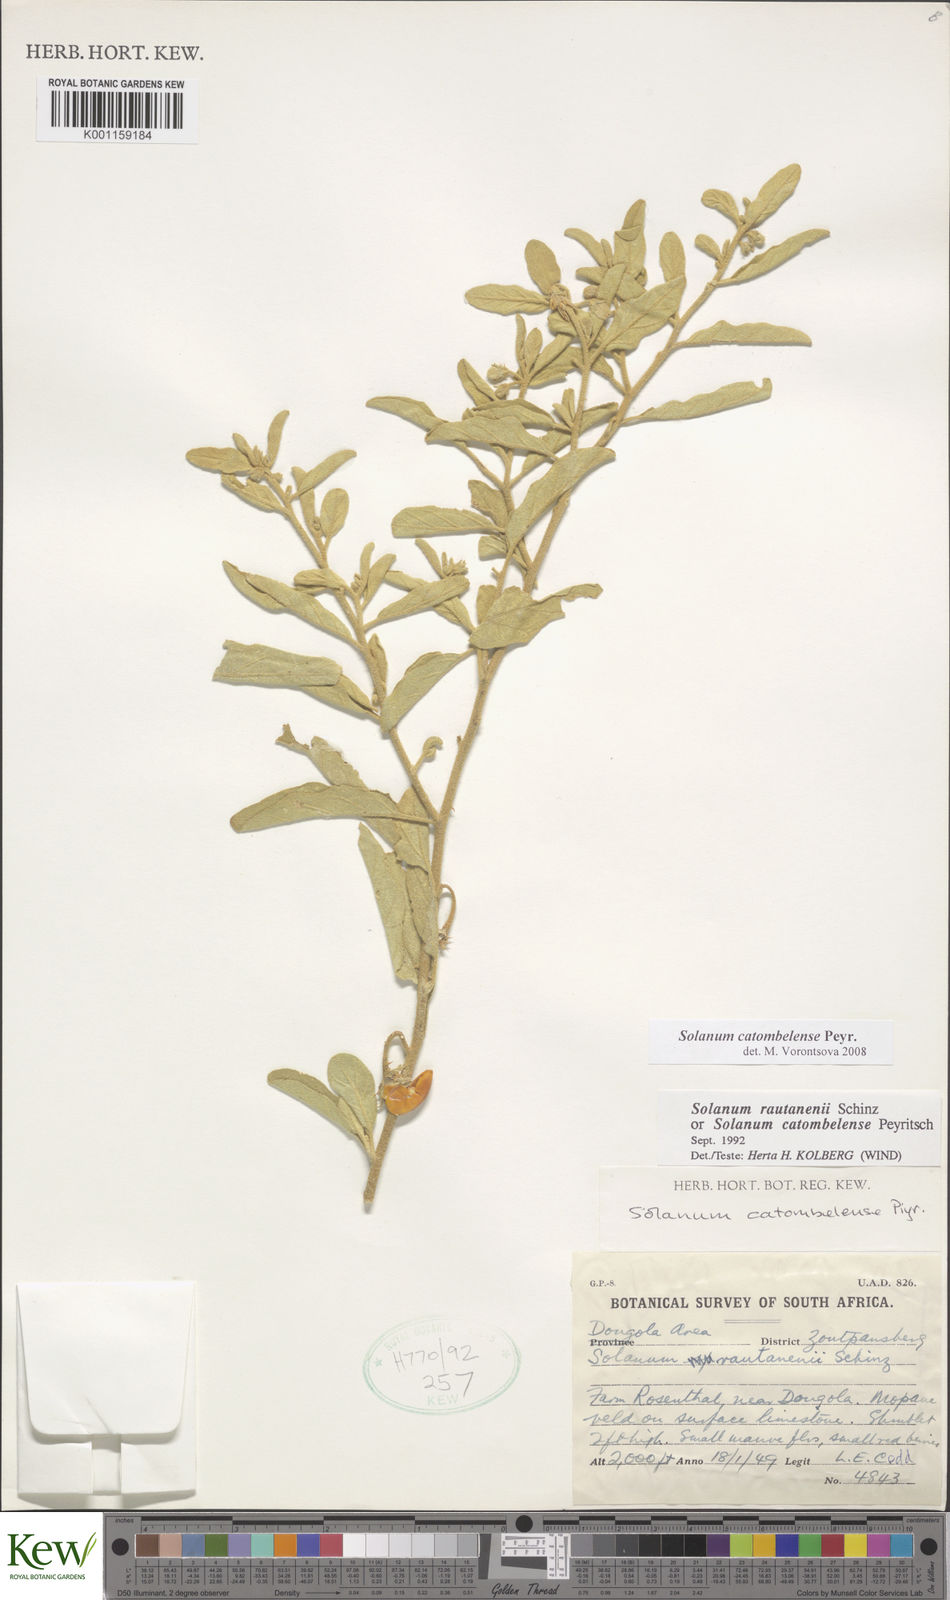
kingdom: Plantae
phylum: Tracheophyta
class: Magnoliopsida
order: Solanales
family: Solanaceae
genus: Solanum
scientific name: Solanum catombelense
